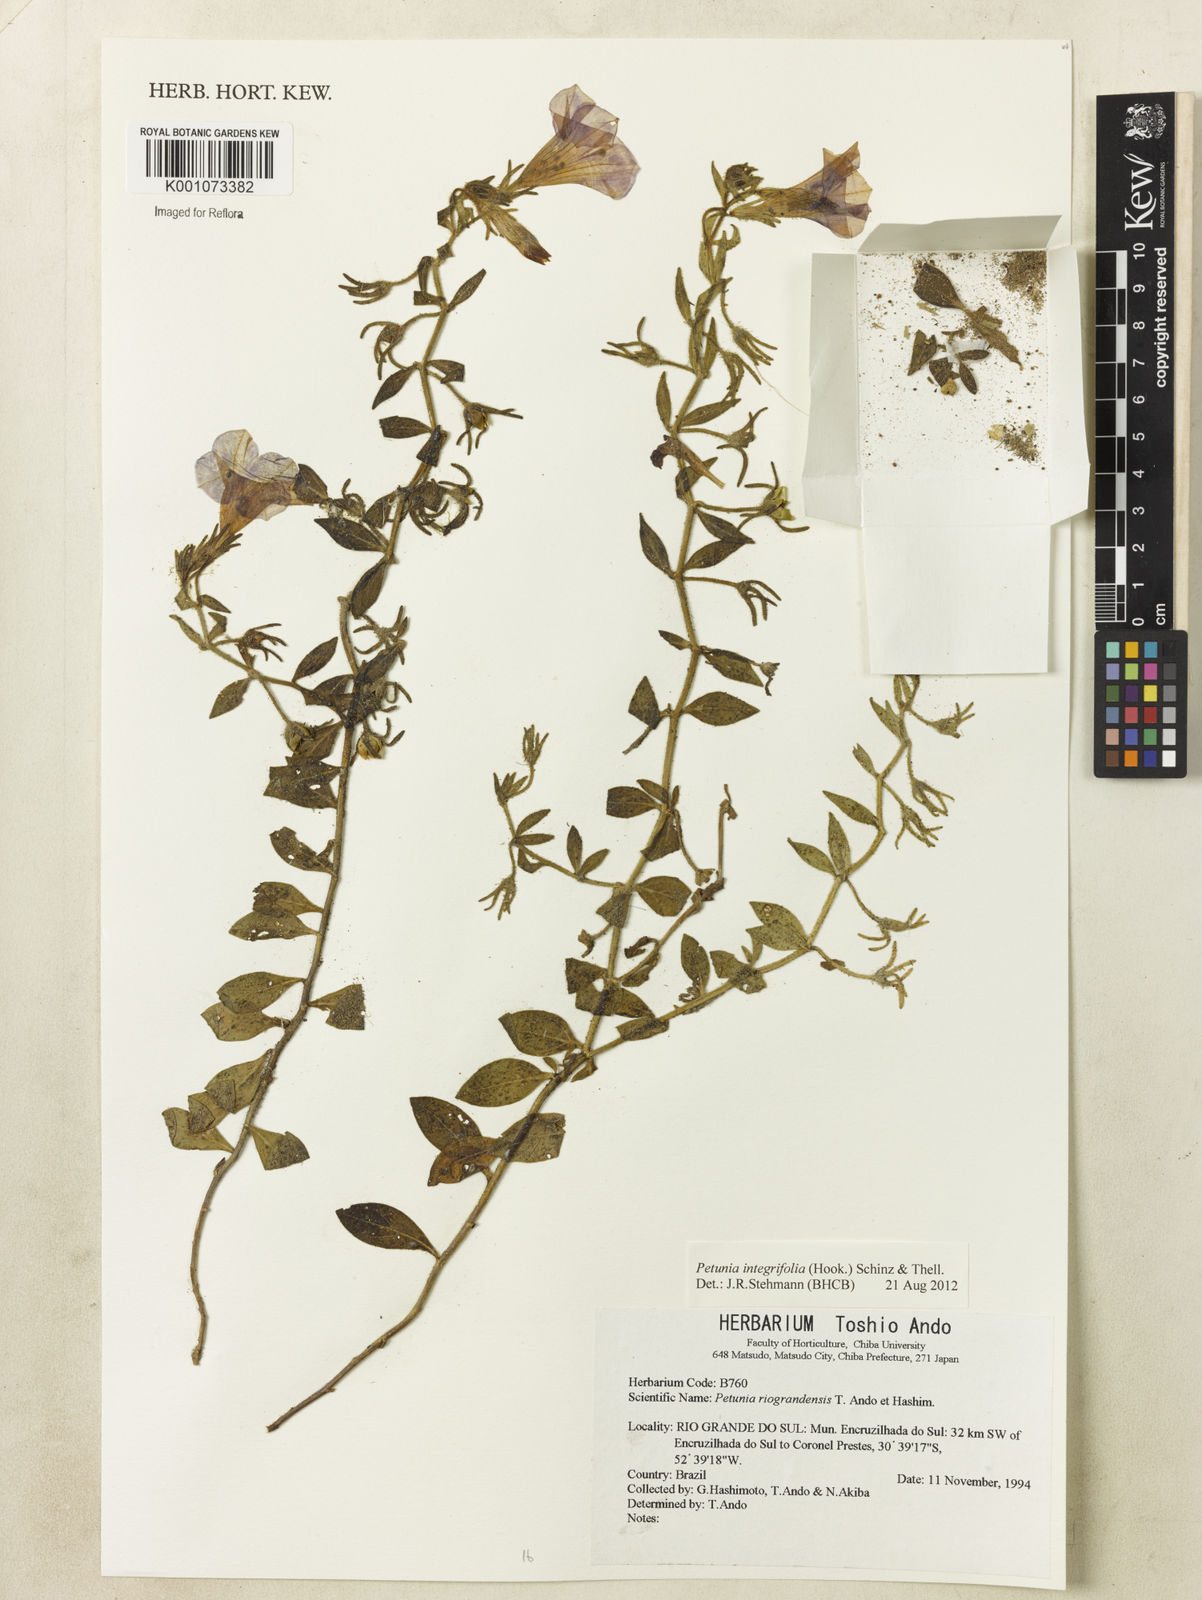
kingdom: Plantae
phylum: Tracheophyta
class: Magnoliopsida
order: Solanales
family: Solanaceae
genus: Petunia
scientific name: Petunia integrifolia
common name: Violet-flower petunia
